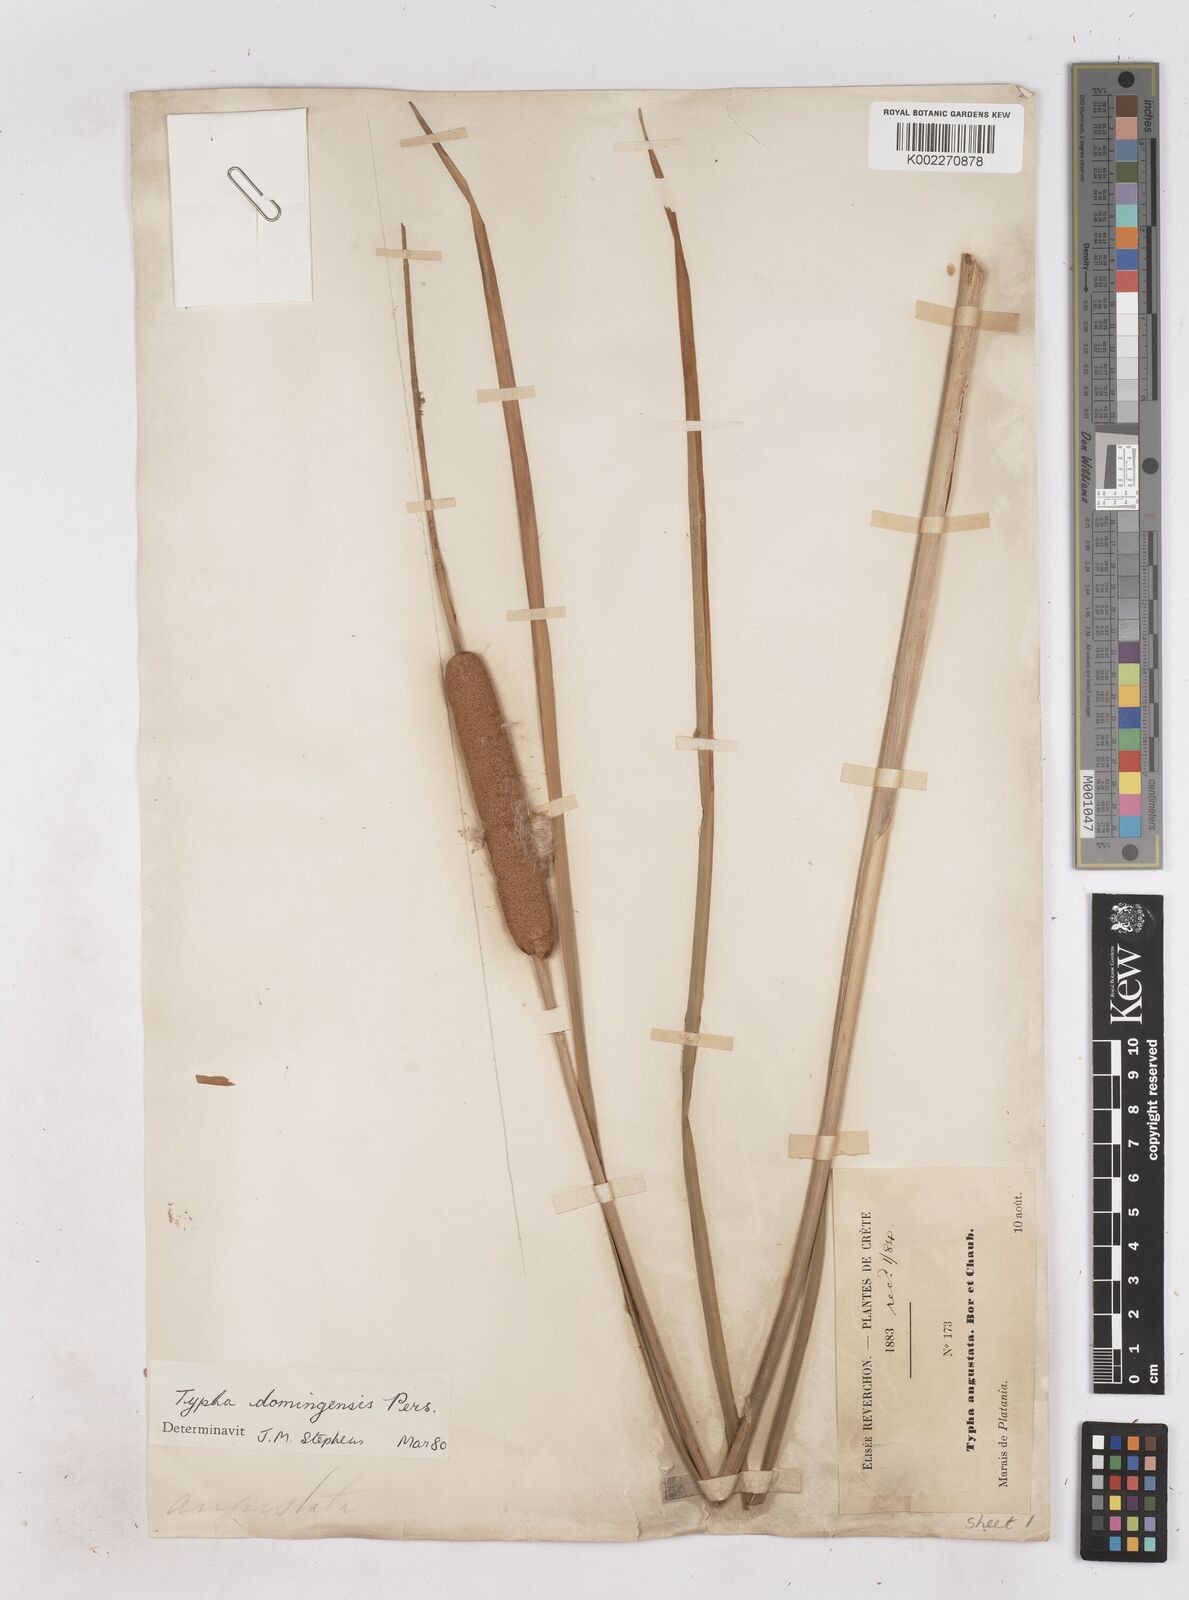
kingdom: Plantae
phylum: Tracheophyta
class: Liliopsida
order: Poales
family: Typhaceae
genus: Typha
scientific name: Typha domingensis
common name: Southern cattail
